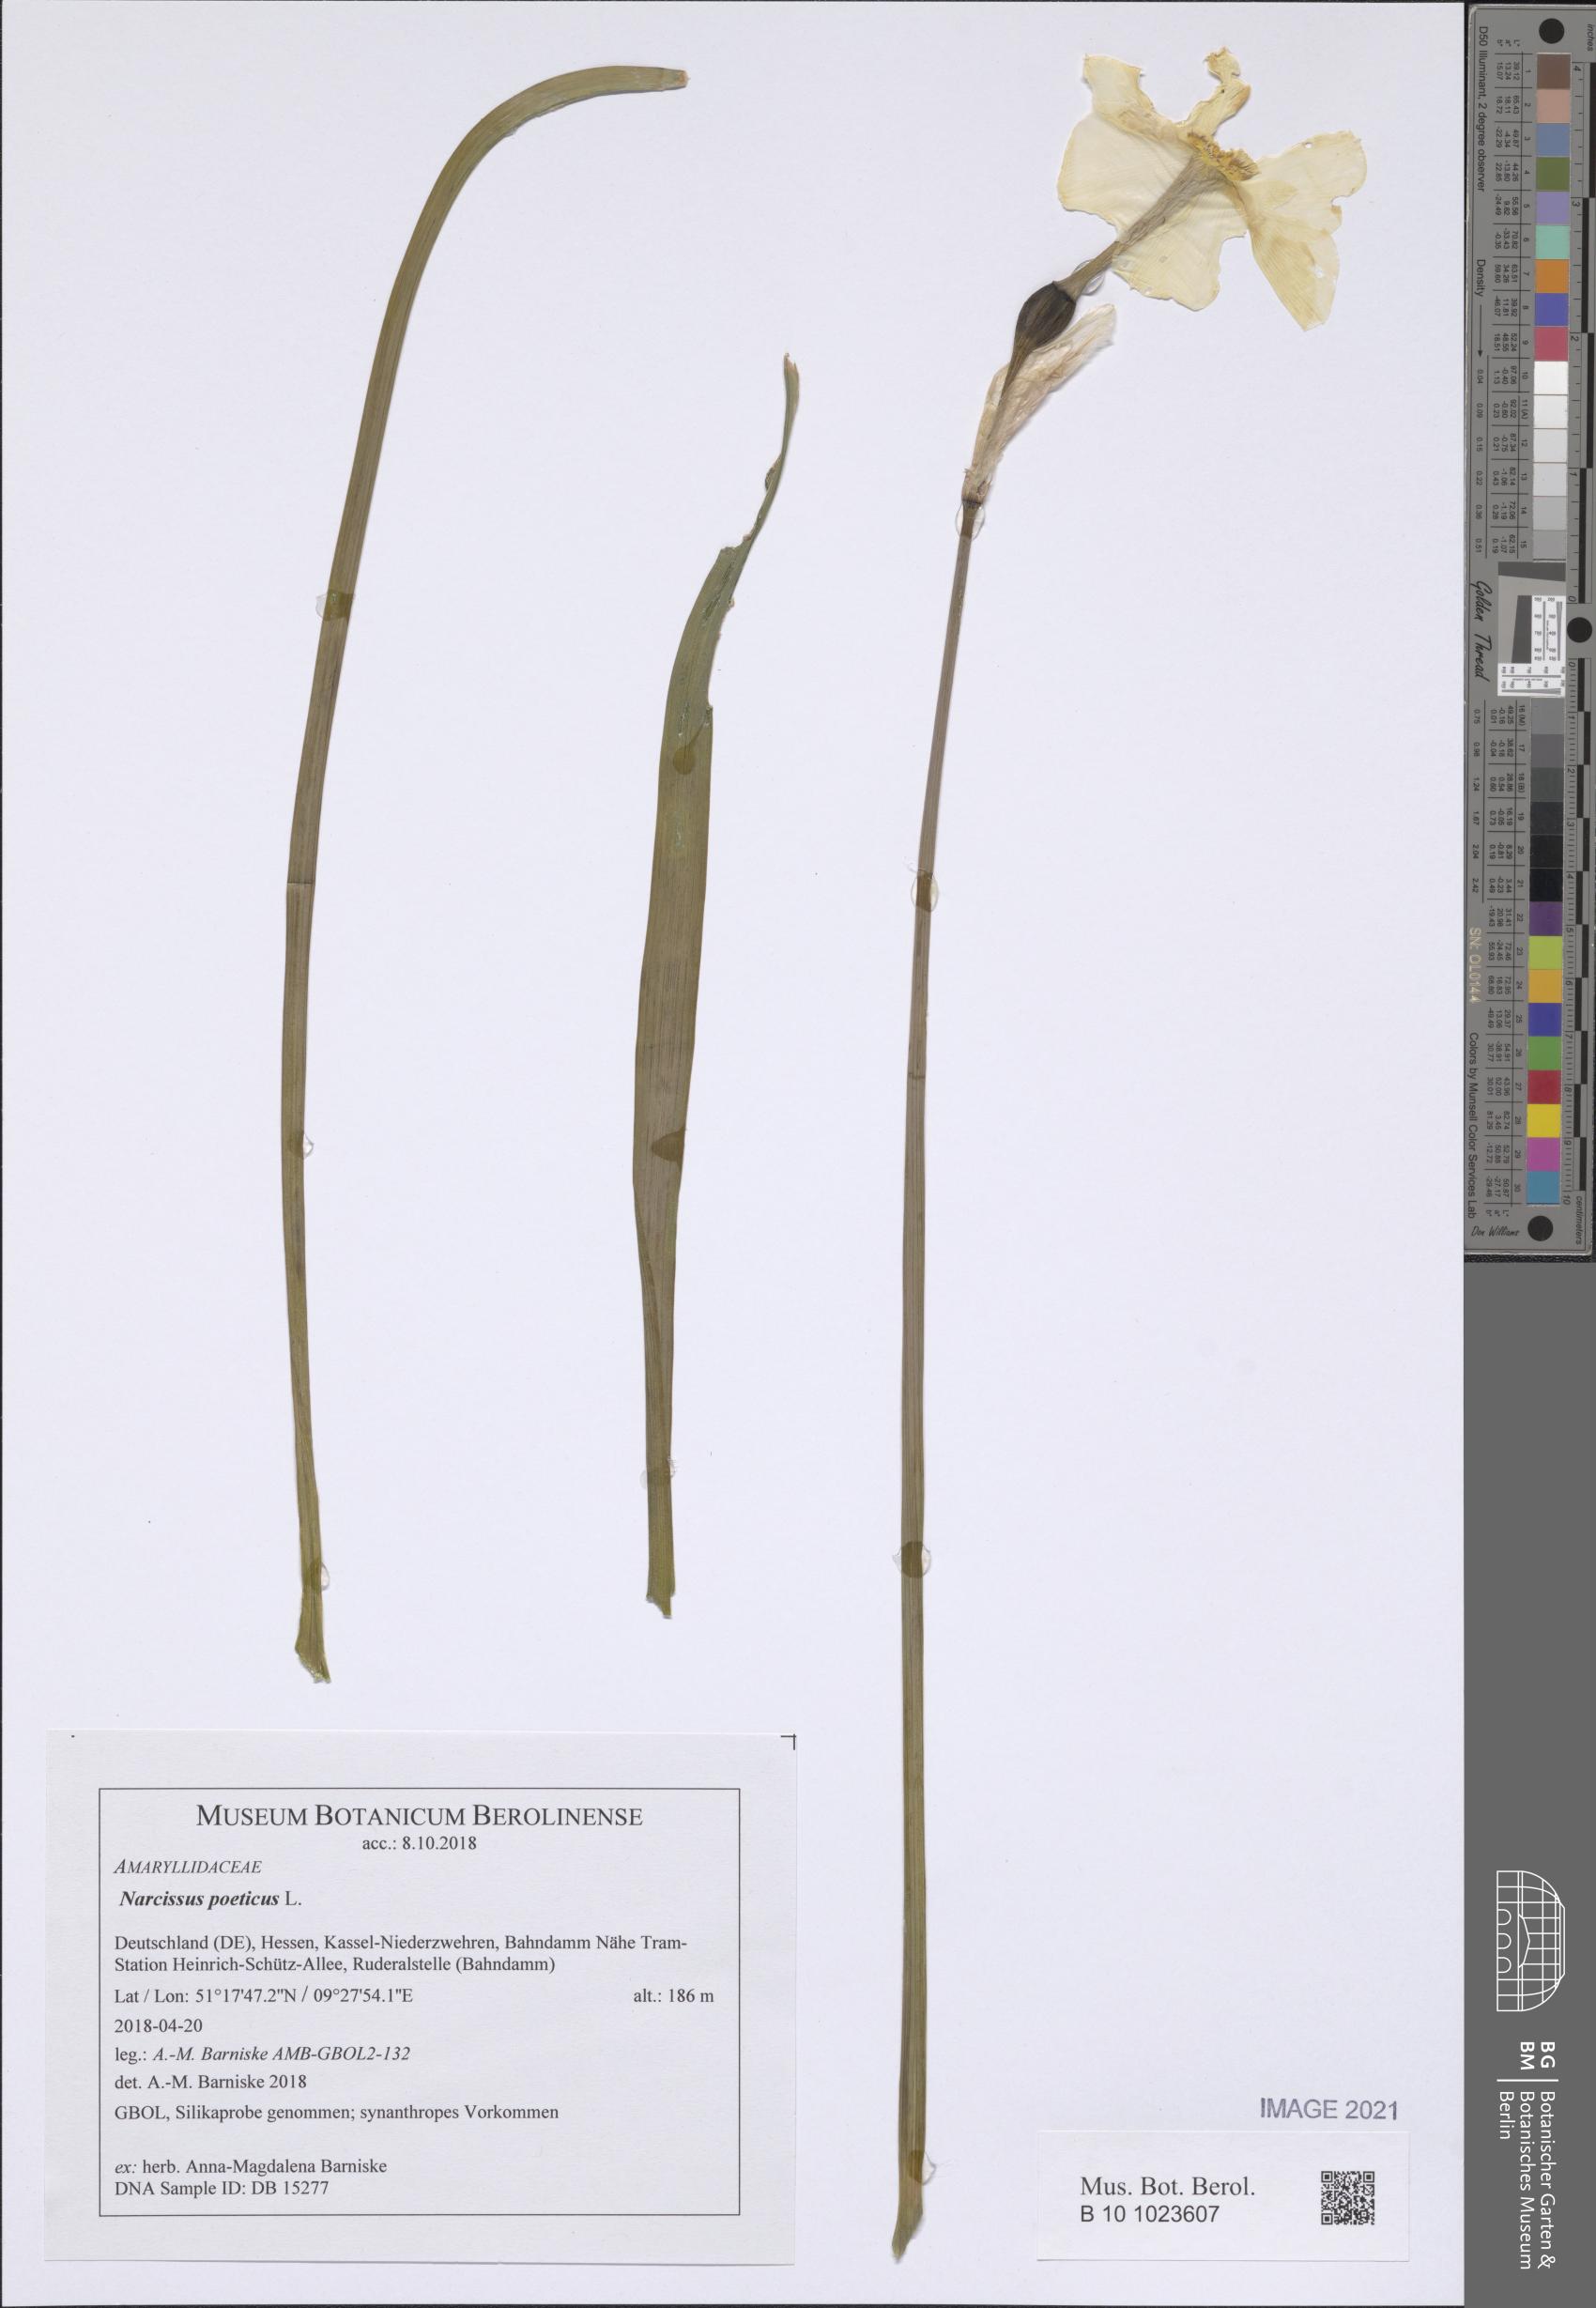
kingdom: Plantae
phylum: Tracheophyta
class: Liliopsida
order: Asparagales
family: Amaryllidaceae
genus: Narcissus
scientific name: Narcissus poeticus
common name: Pheasant's-eye daffodil
